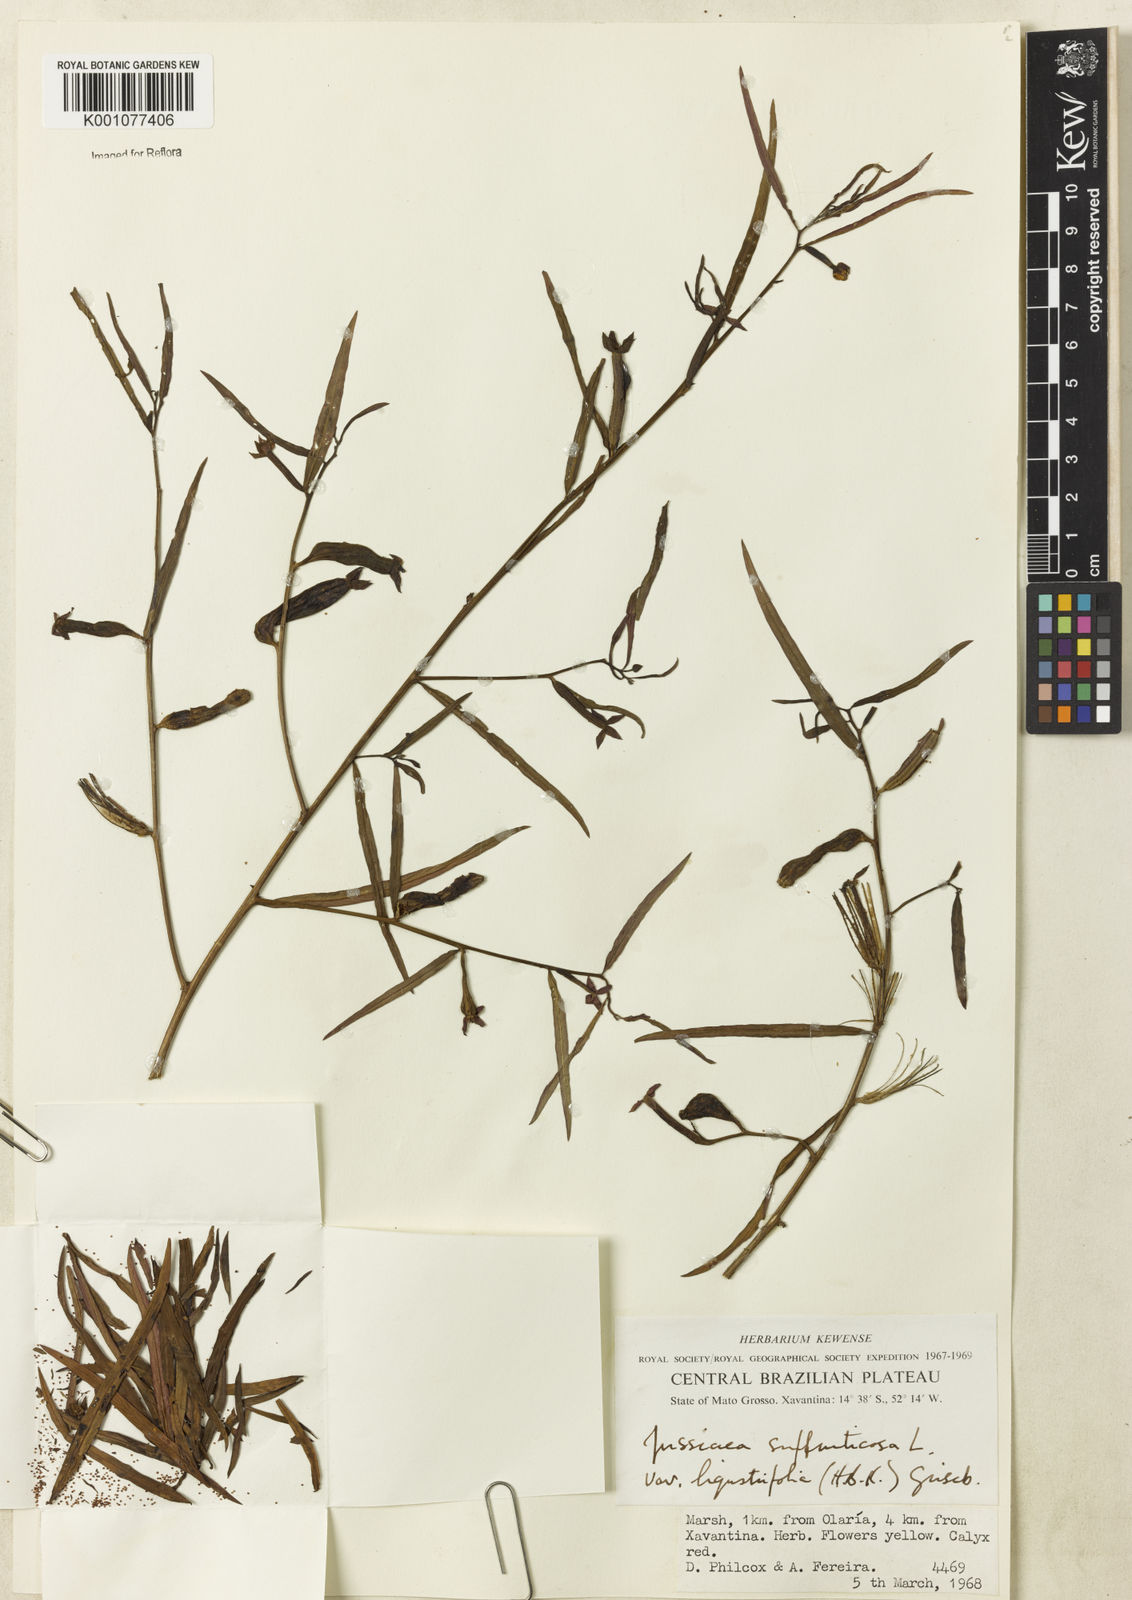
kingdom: Plantae
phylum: Tracheophyta
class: Magnoliopsida
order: Myrtales
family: Onagraceae
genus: Ludwigia
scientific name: Ludwigia octovalvis
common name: Water-primrose
